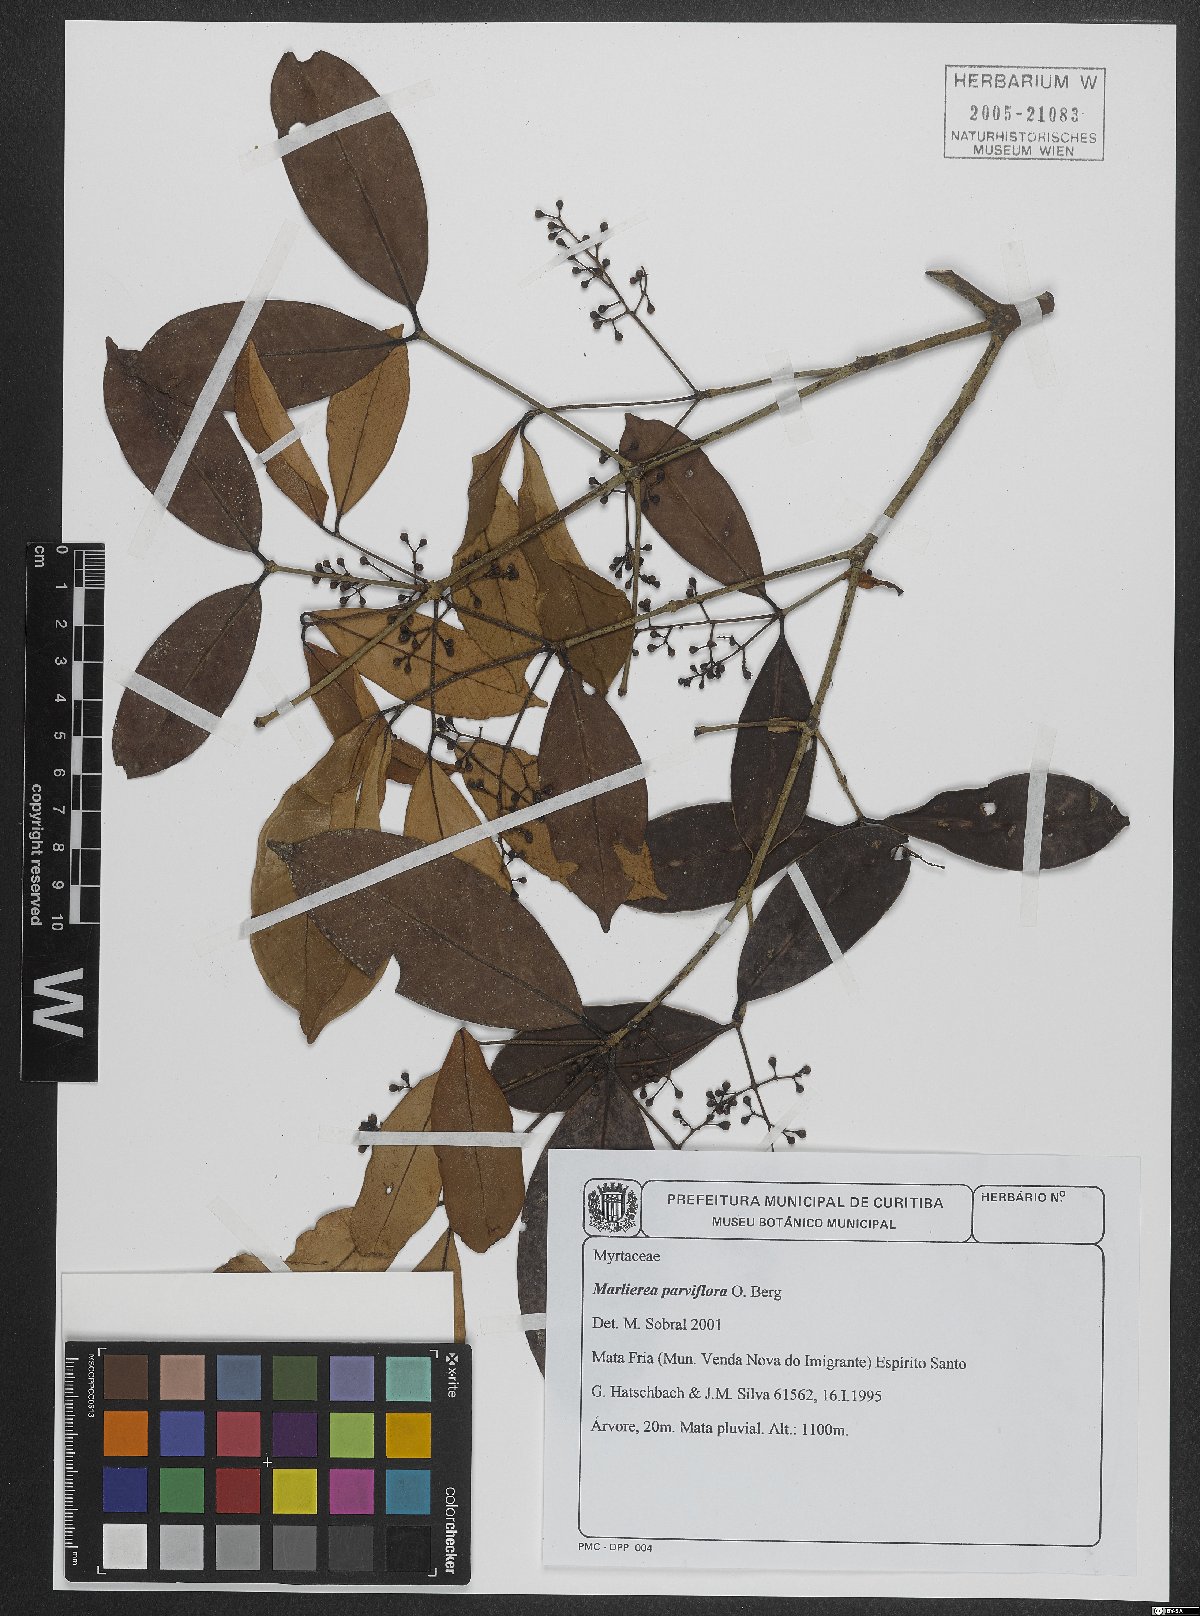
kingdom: Plantae
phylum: Tracheophyta
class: Magnoliopsida
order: Myrtales
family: Myrtaceae
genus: Myrcia
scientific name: Myrcia excoriata
